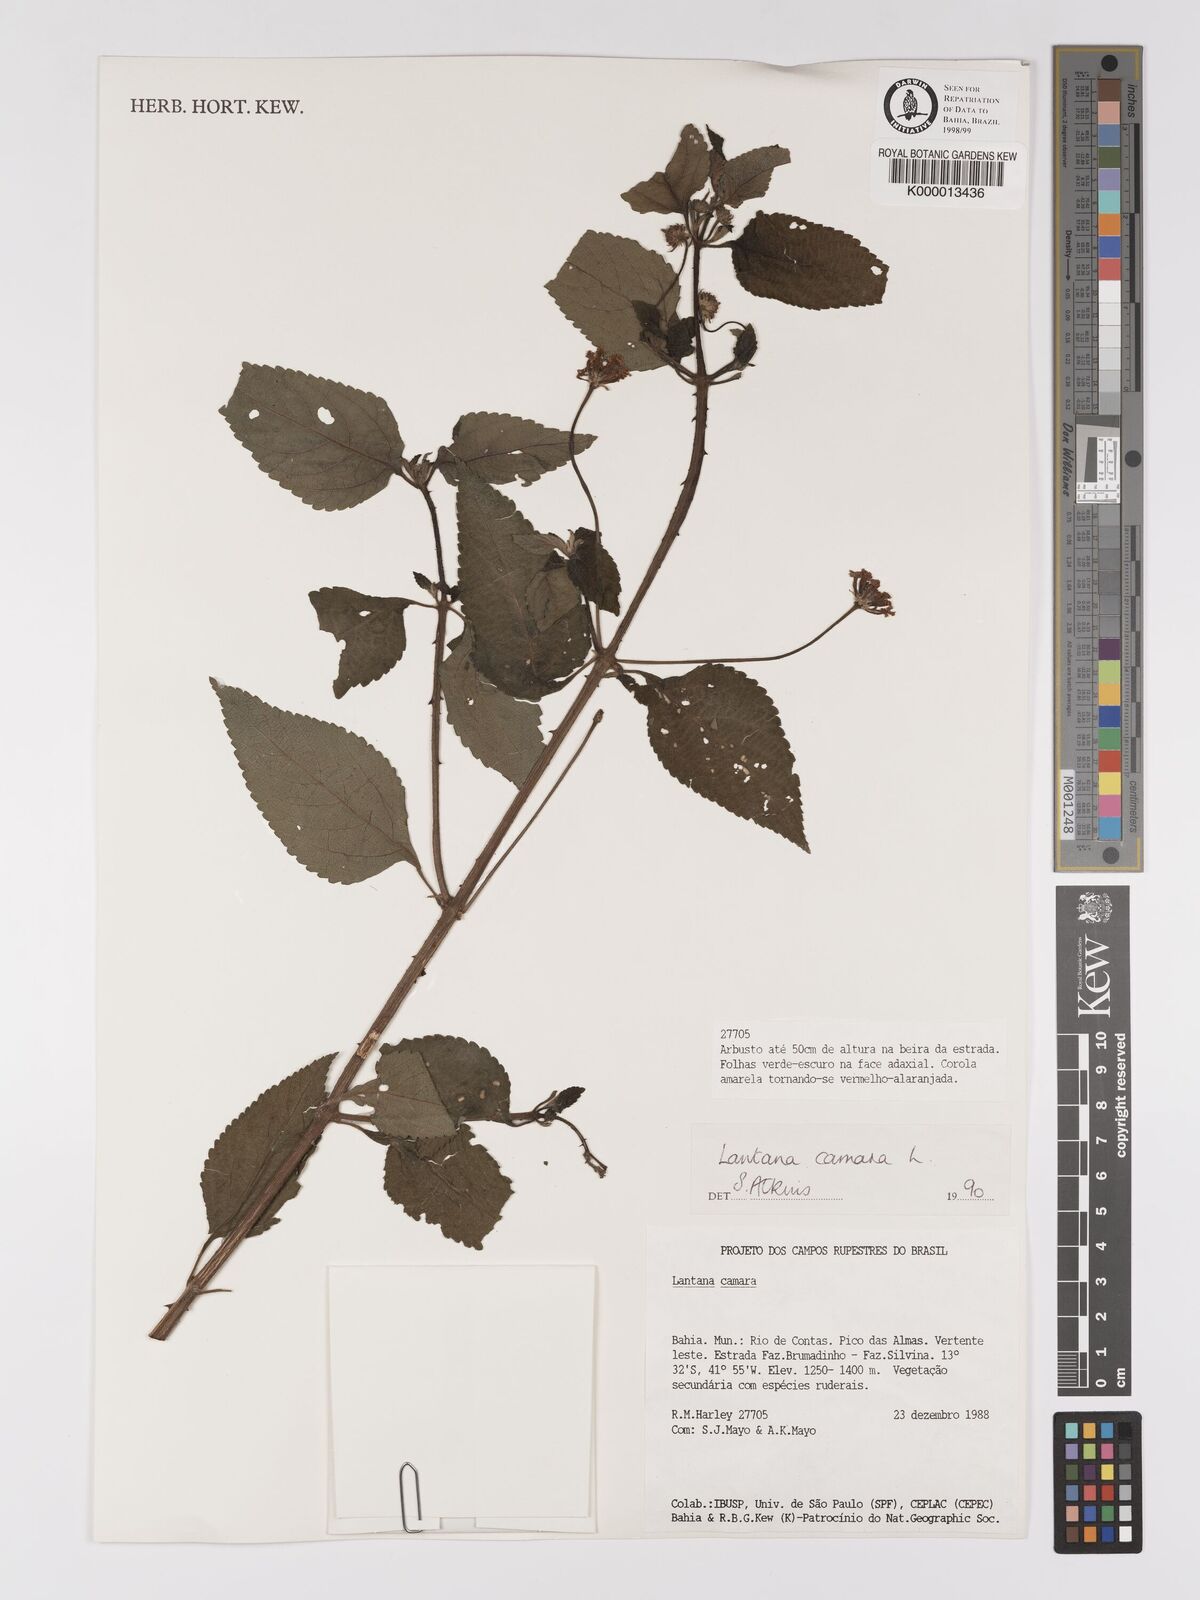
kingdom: Plantae
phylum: Tracheophyta
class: Magnoliopsida
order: Lamiales
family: Verbenaceae
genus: Lantana
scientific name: Lantana camara
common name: Lantana
